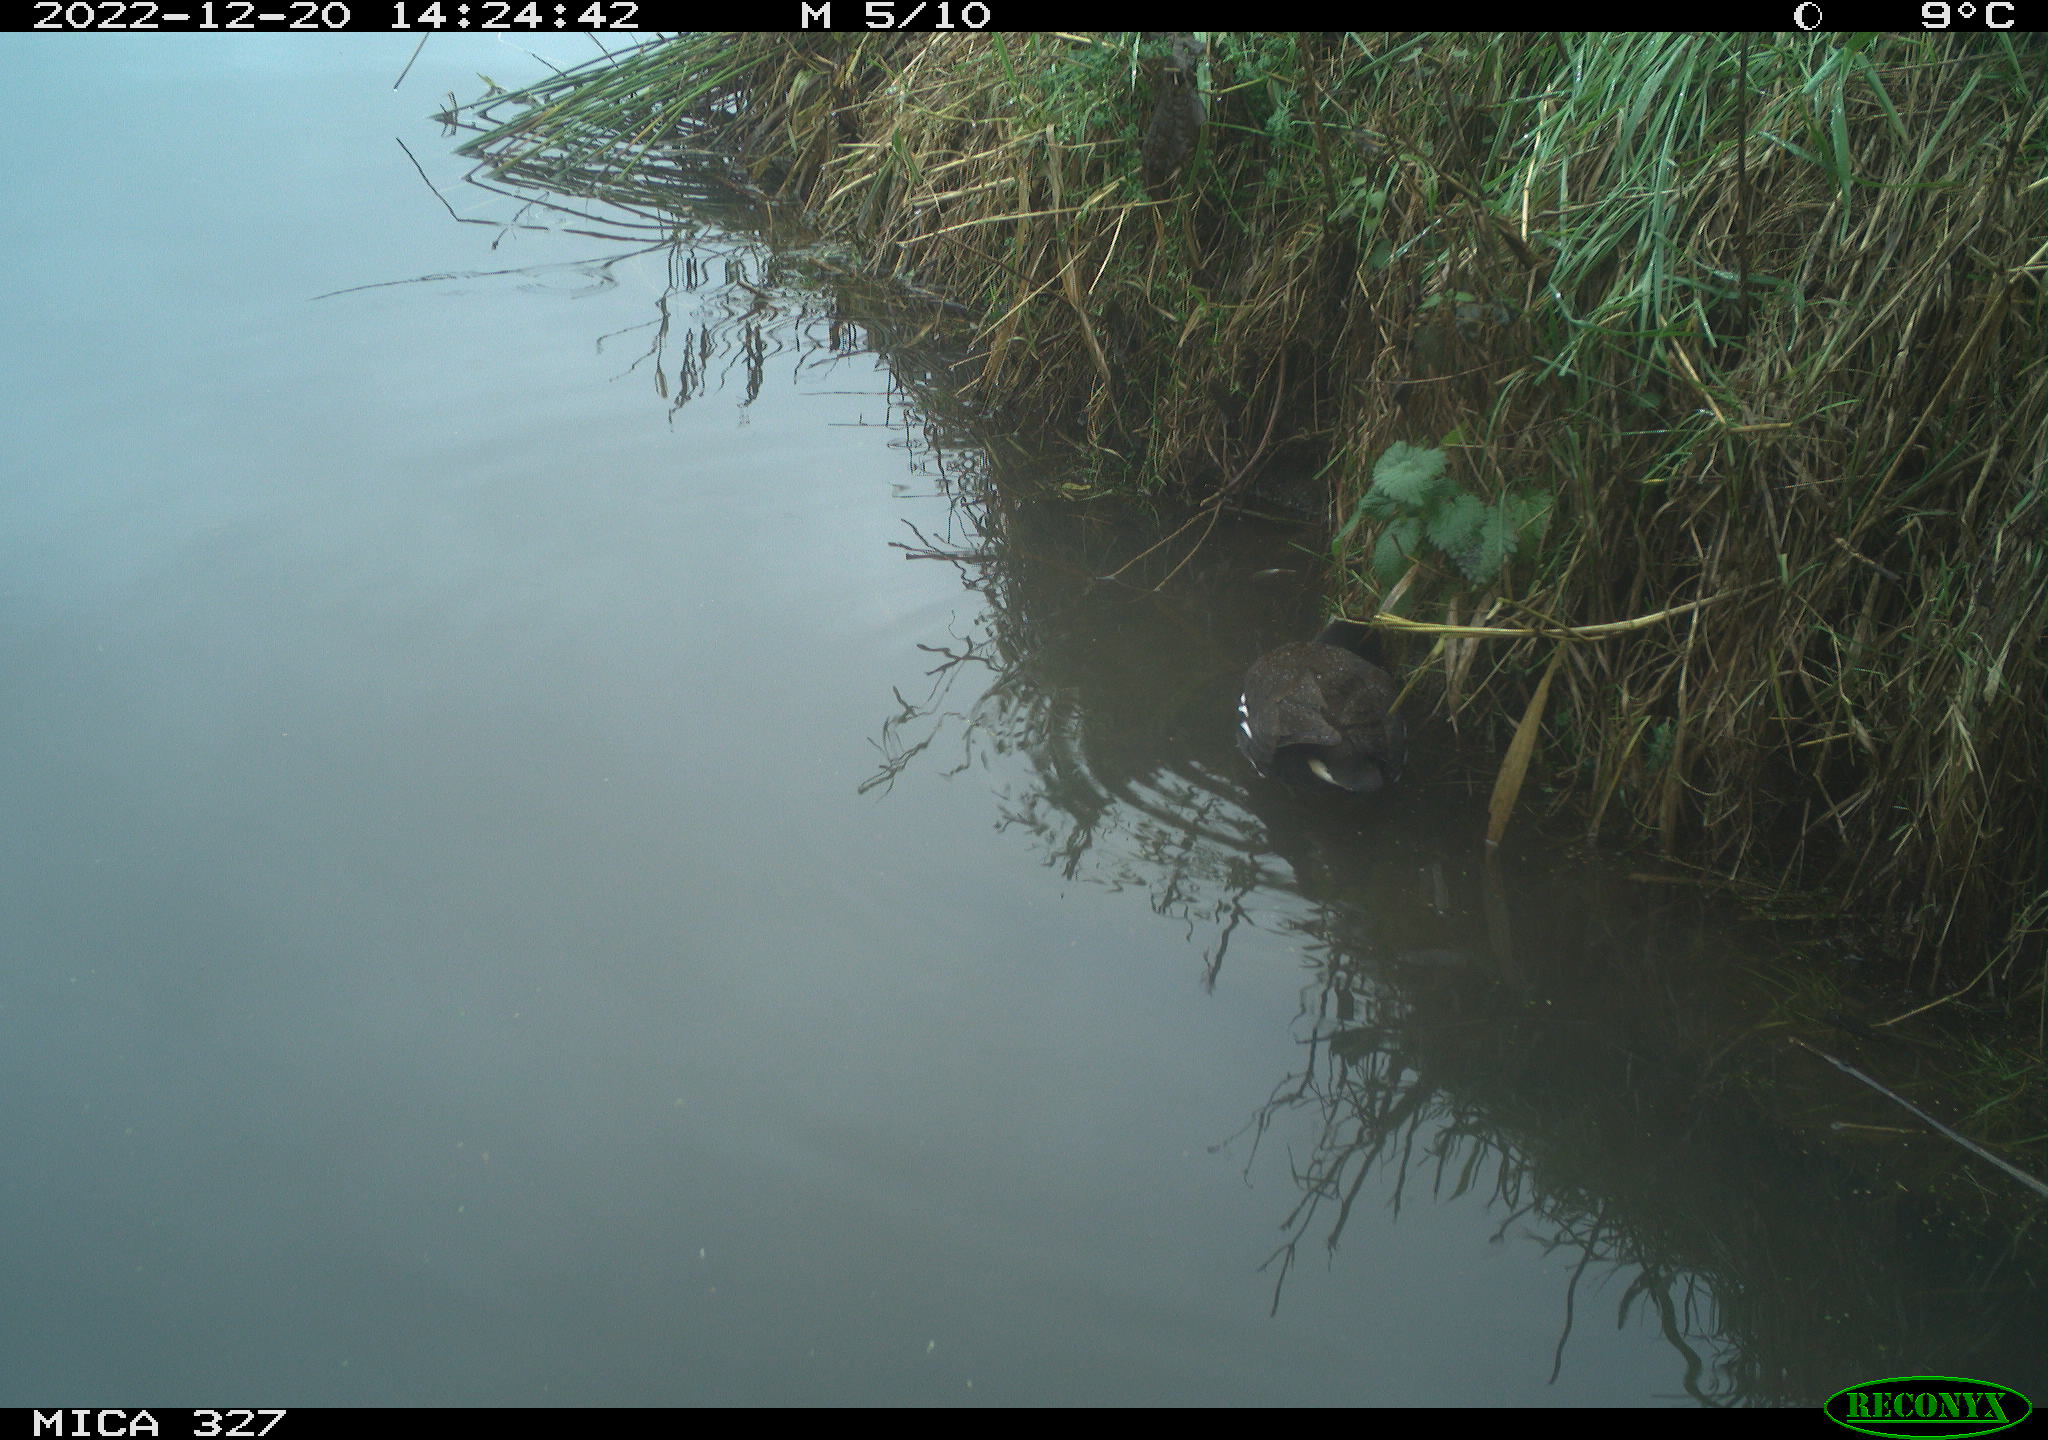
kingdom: Animalia
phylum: Chordata
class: Aves
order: Gruiformes
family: Rallidae
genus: Gallinula
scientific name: Gallinula chloropus
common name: Common moorhen
